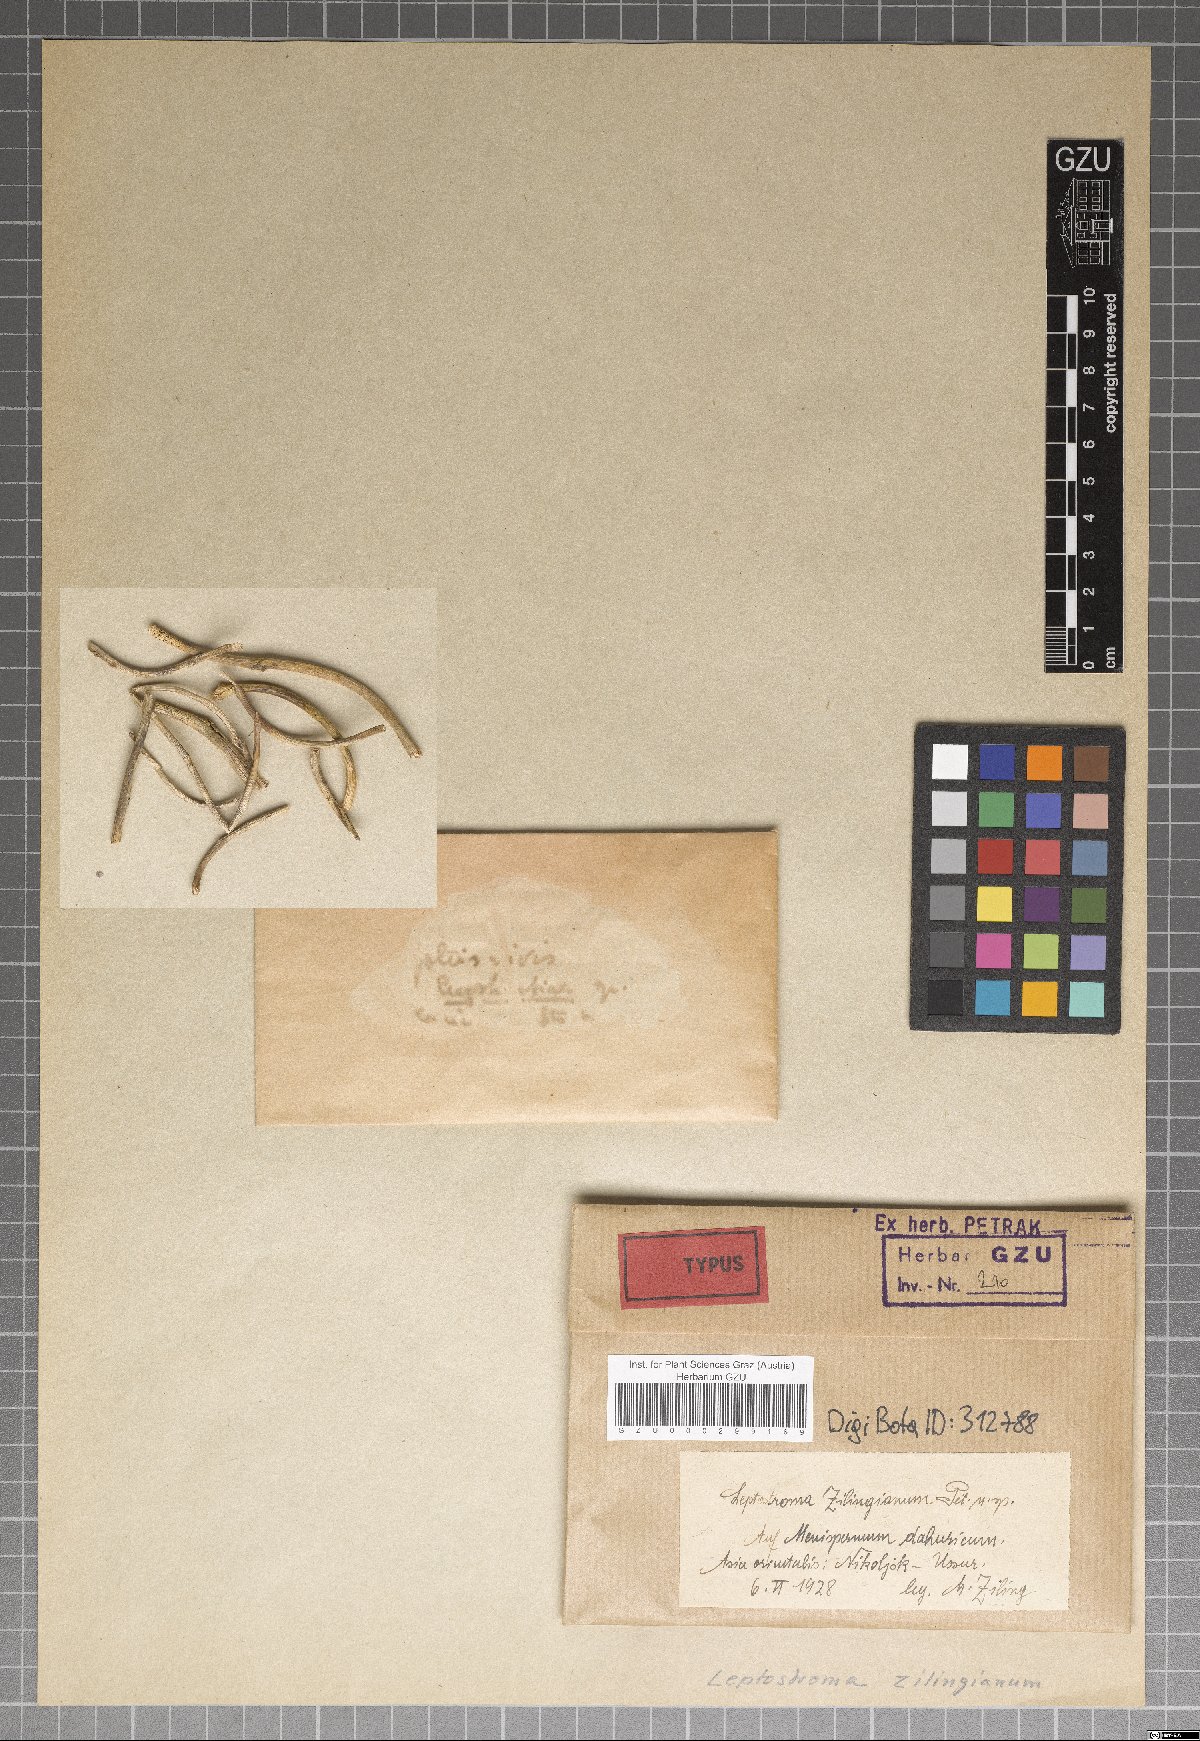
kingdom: Fungi
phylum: Ascomycota
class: Leotiomycetes
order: Rhytismatales
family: Rhytismataceae
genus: Leptostroma
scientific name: Leptostroma zillingianum
